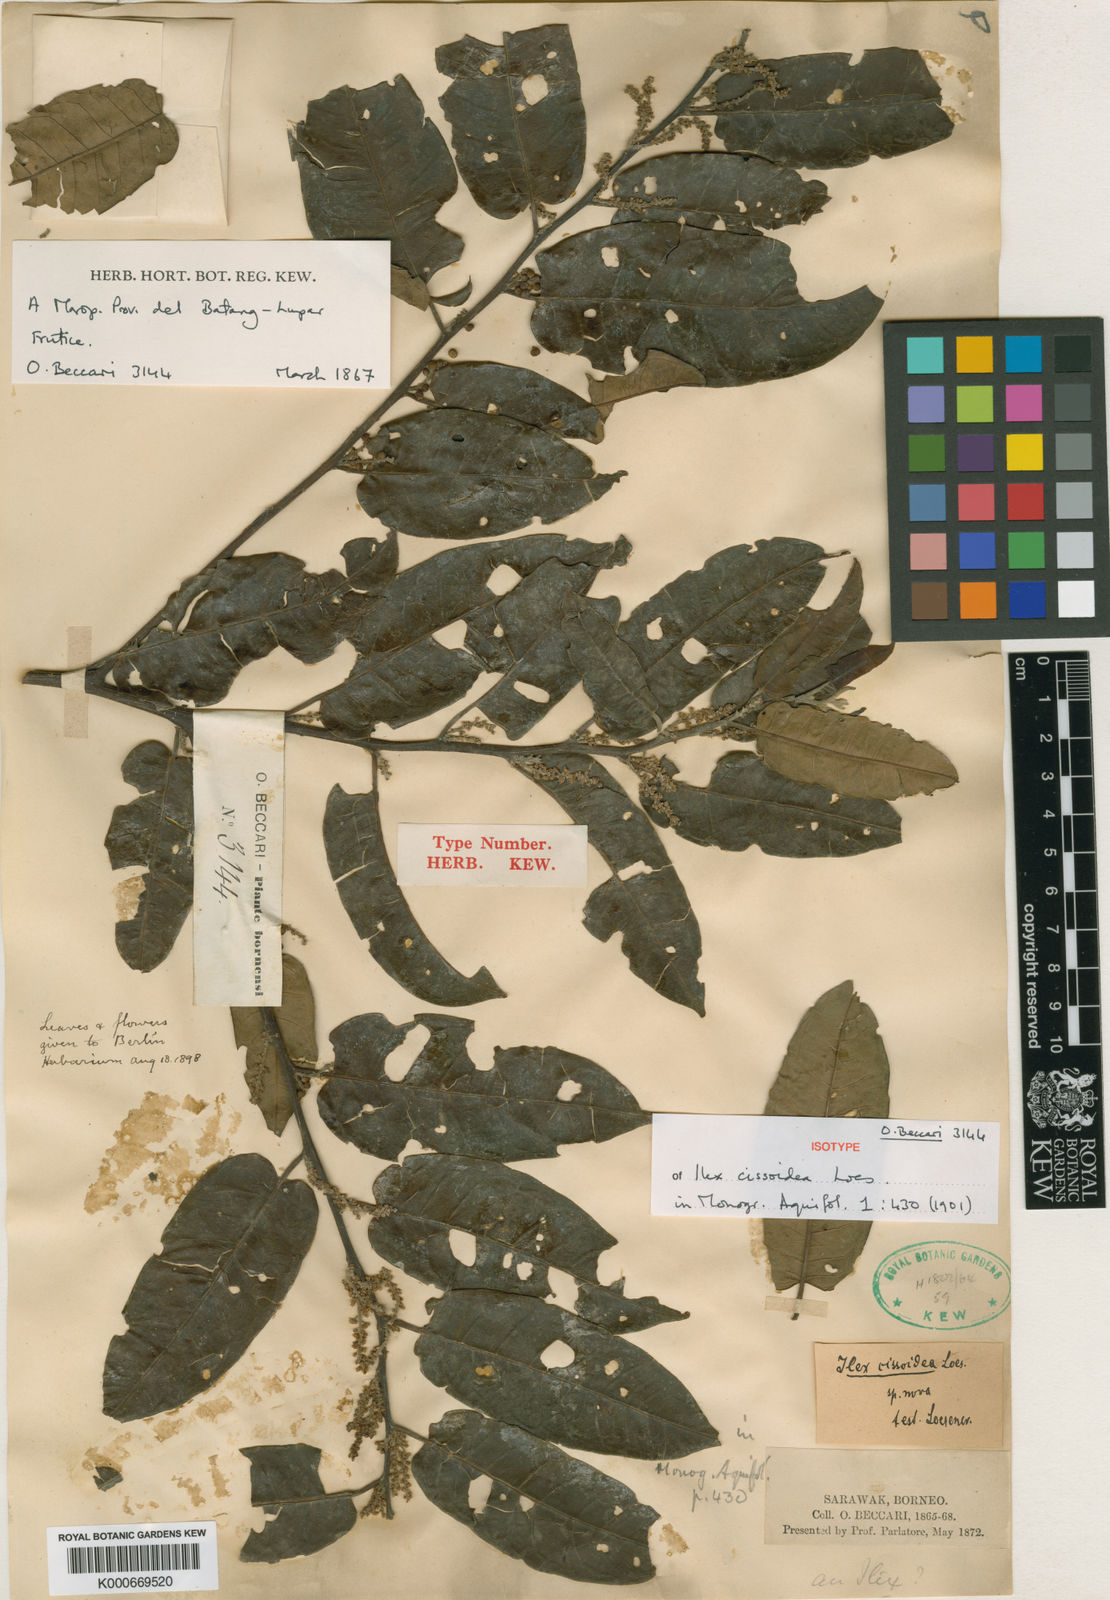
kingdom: Plantae
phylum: Tracheophyta
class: Magnoliopsida
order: Aquifoliales
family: Aquifoliaceae
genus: Ilex
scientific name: Ilex cissoidea
